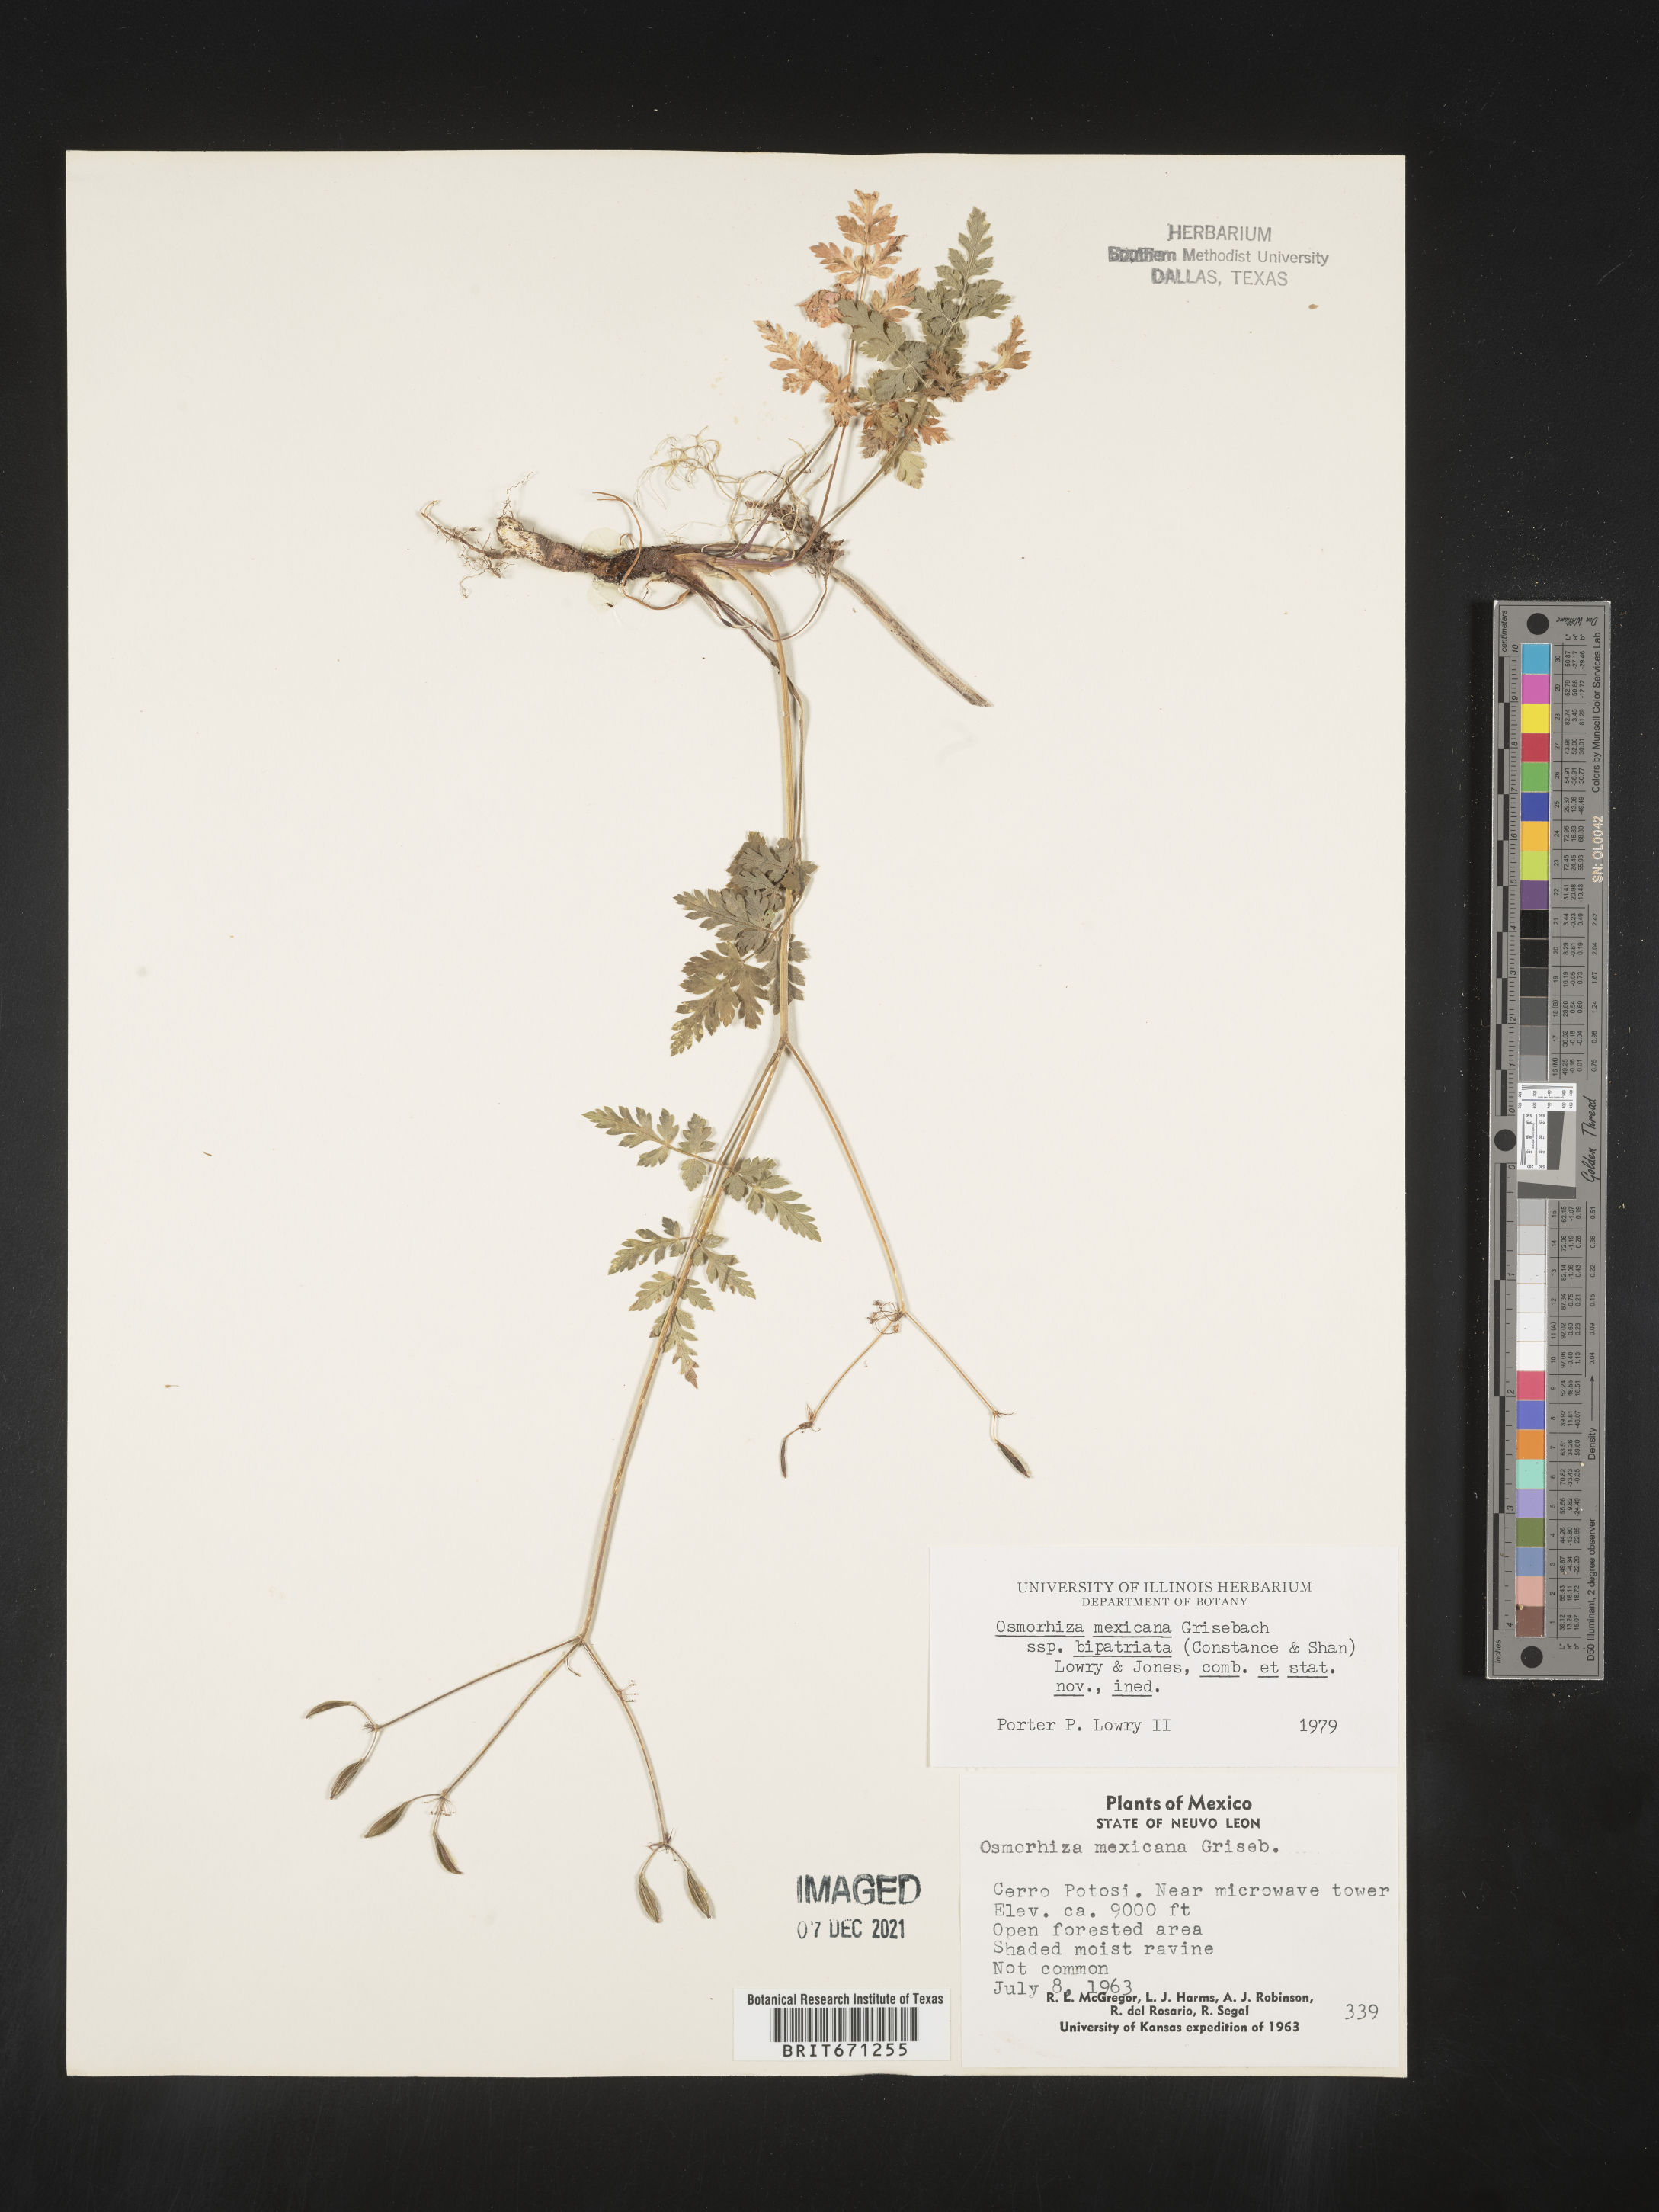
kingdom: Plantae
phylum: Tracheophyta
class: Magnoliopsida
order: Apiales
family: Apiaceae
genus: Osmorhiza
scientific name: Osmorhiza
